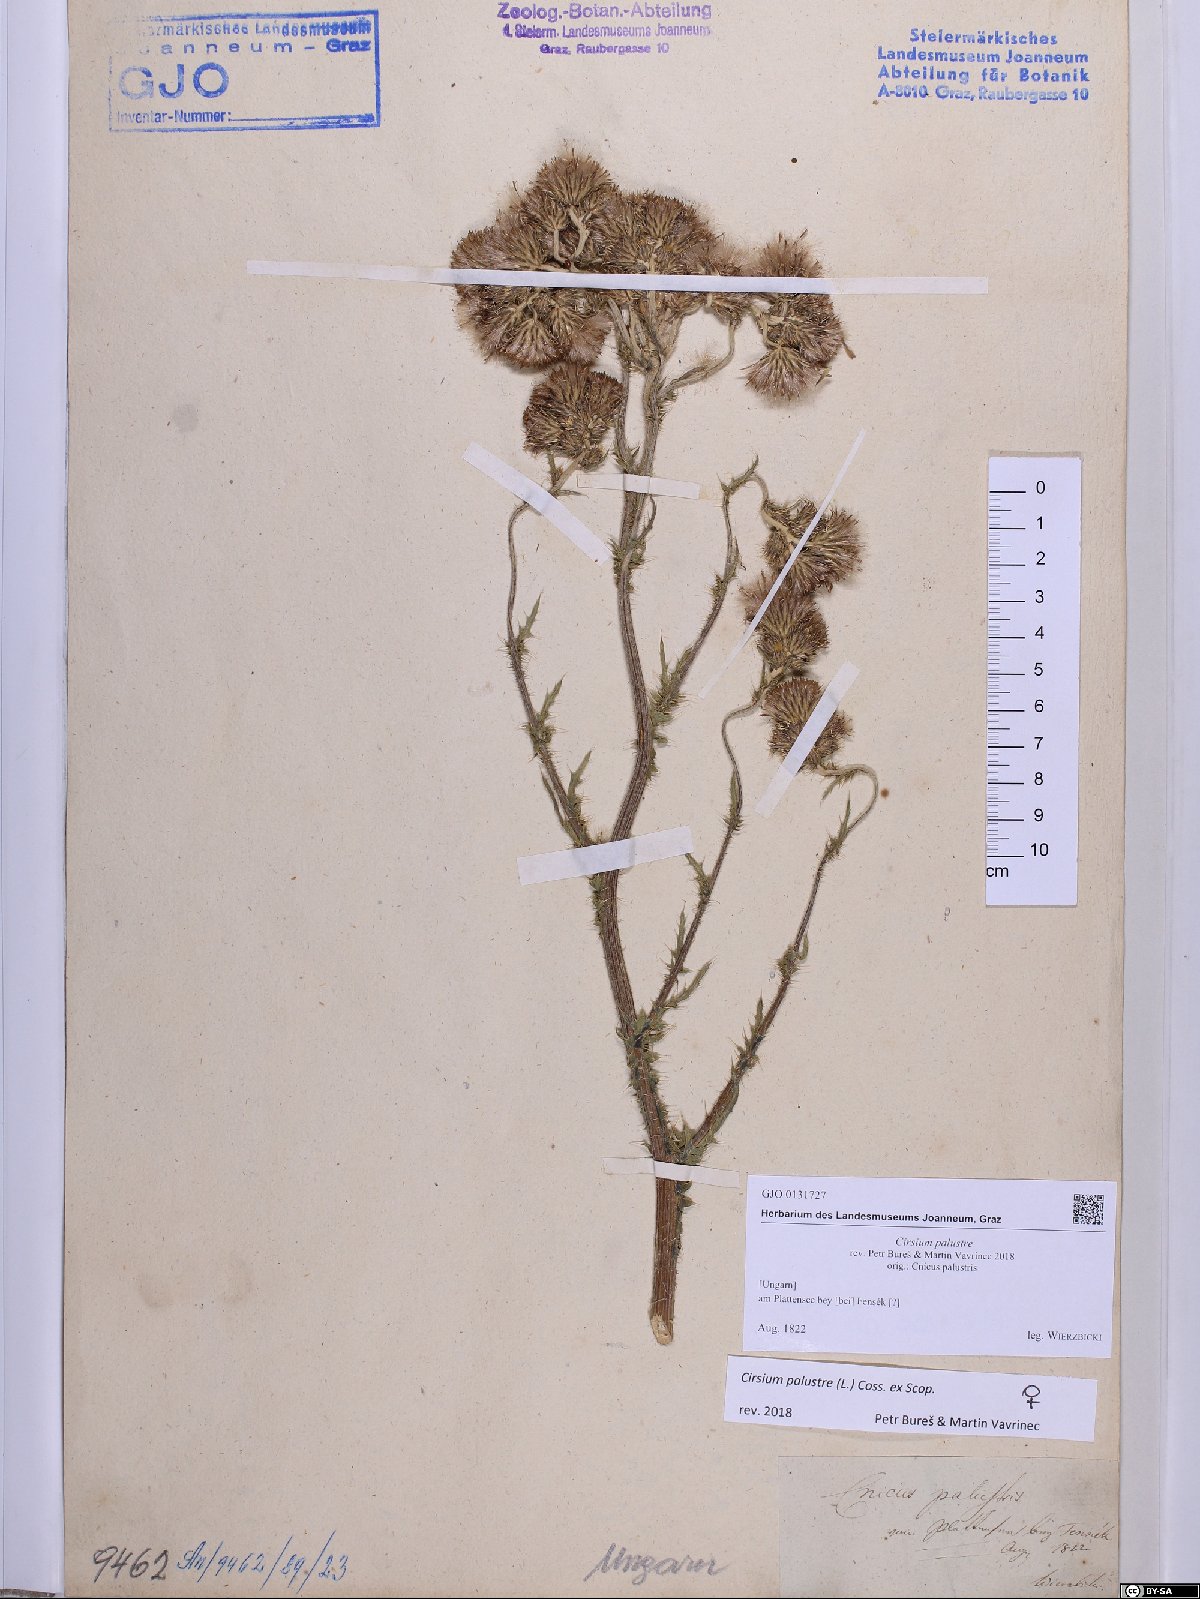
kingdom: Plantae
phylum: Tracheophyta
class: Magnoliopsida
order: Asterales
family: Asteraceae
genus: Cirsium
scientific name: Cirsium palustre
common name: Marsh thistle
